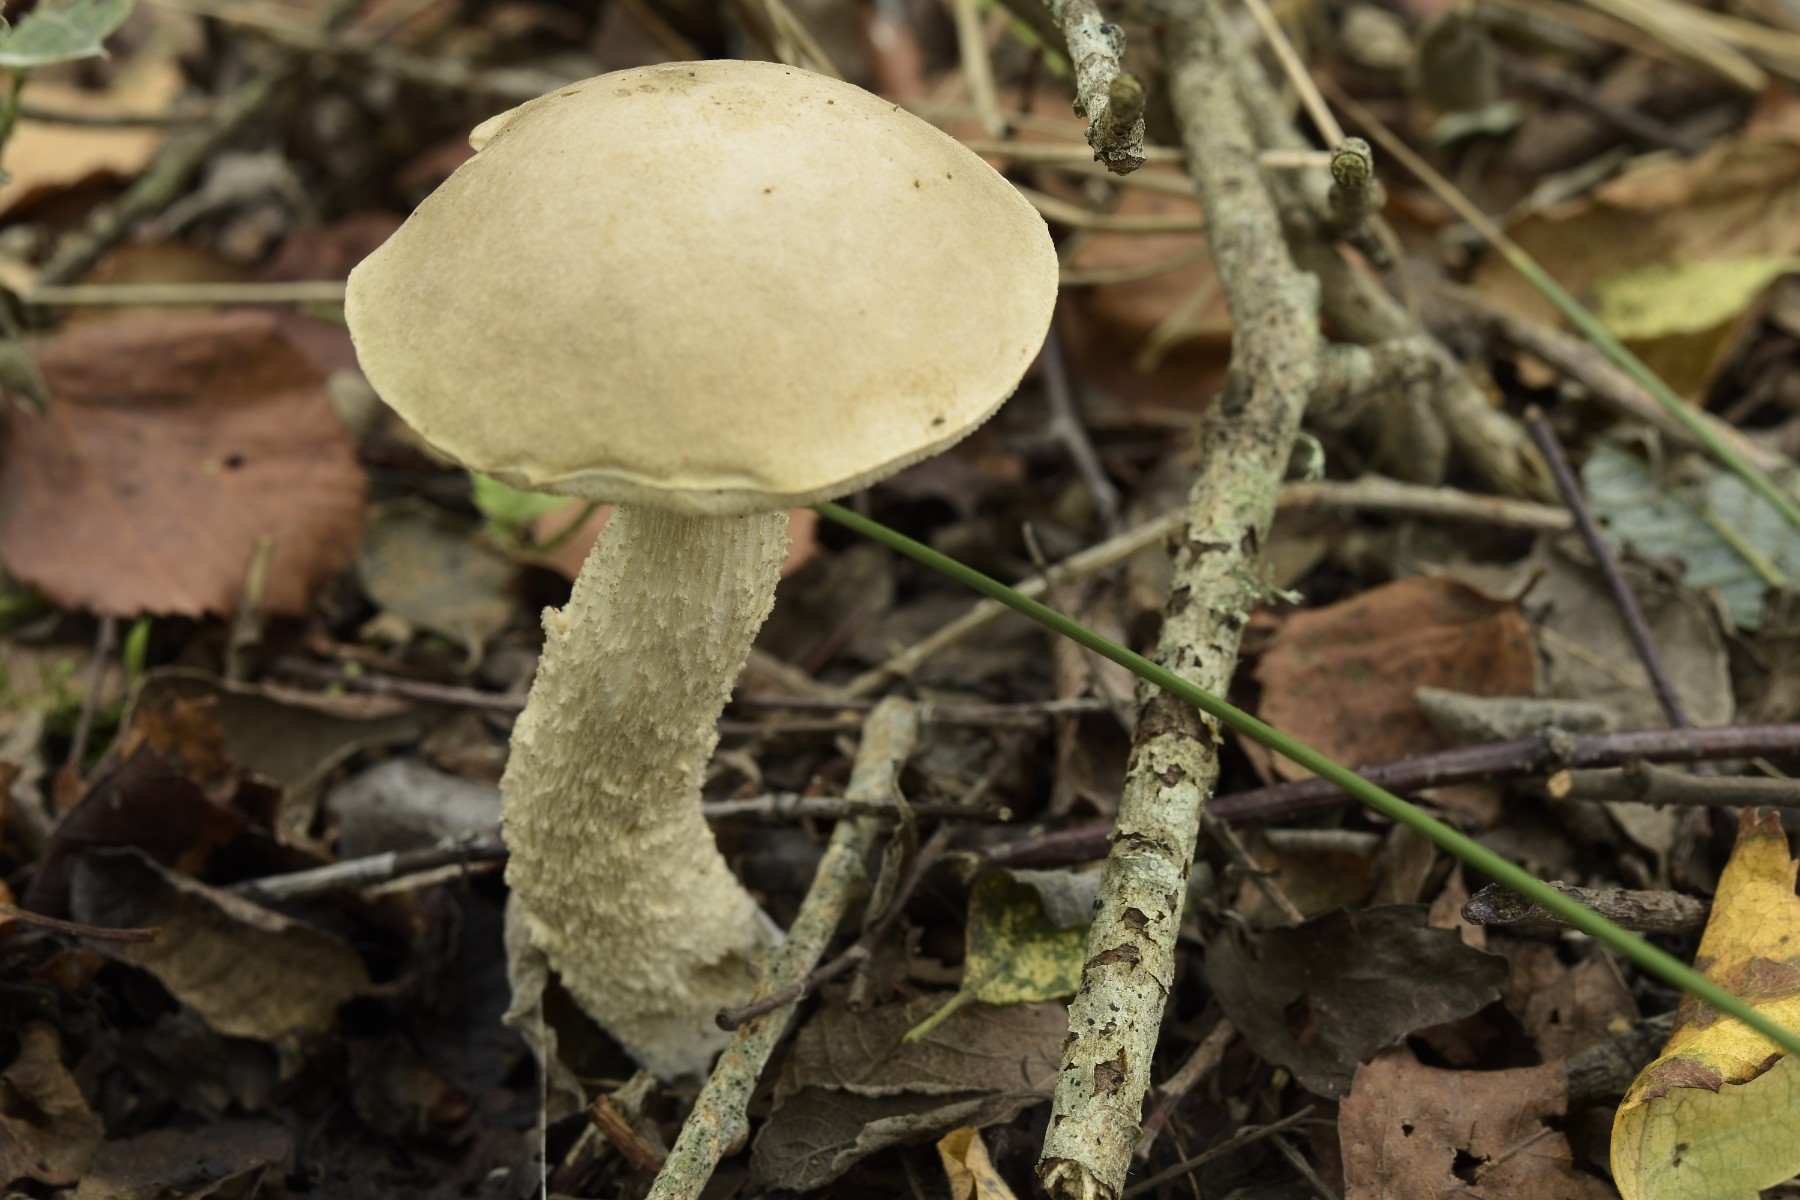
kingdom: Fungi
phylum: Basidiomycota
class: Agaricomycetes
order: Boletales
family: Boletaceae
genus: Leccinum
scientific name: Leccinum schistophilum
